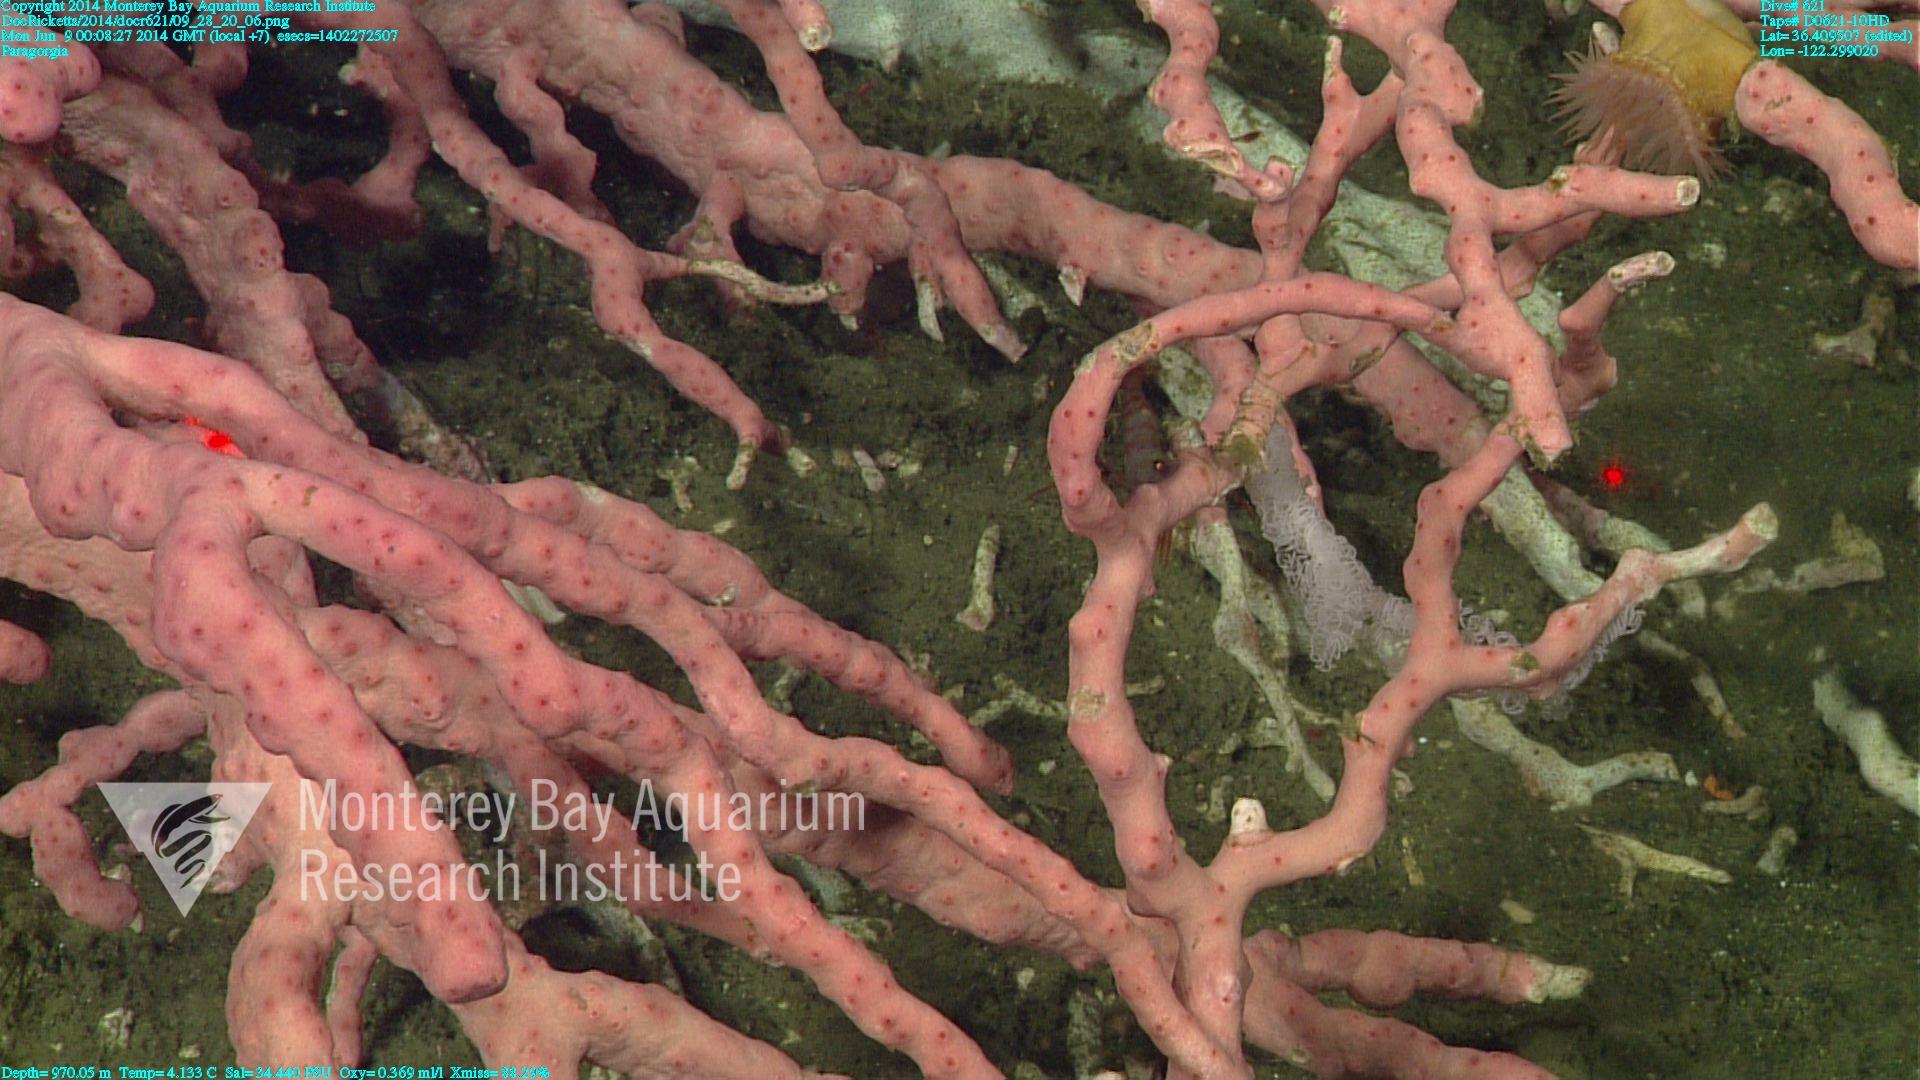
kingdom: Animalia
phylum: Cnidaria
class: Anthozoa
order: Scleralcyonacea
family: Coralliidae
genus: Paragorgia
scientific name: Paragorgia arborea
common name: Bubble gum coral
